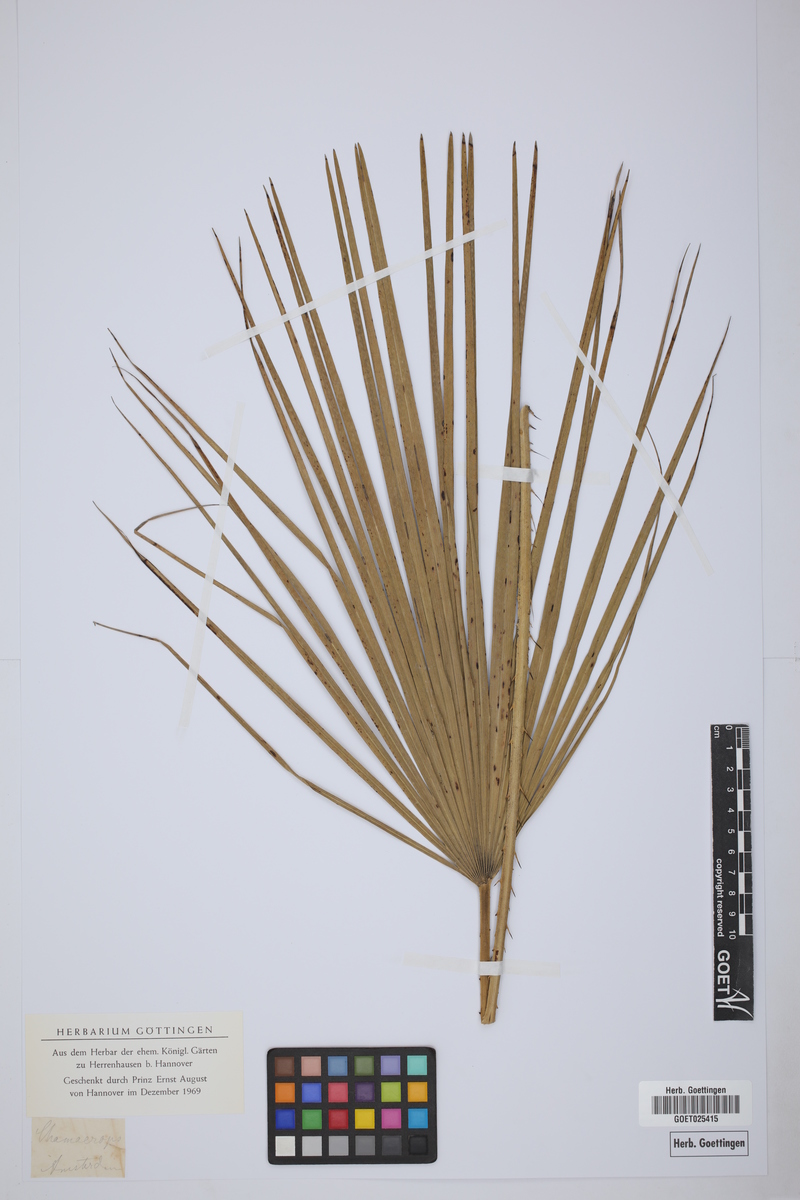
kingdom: Plantae
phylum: Tracheophyta
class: Liliopsida
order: Arecales
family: Arecaceae
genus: Chamaerops
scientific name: Chamaerops
